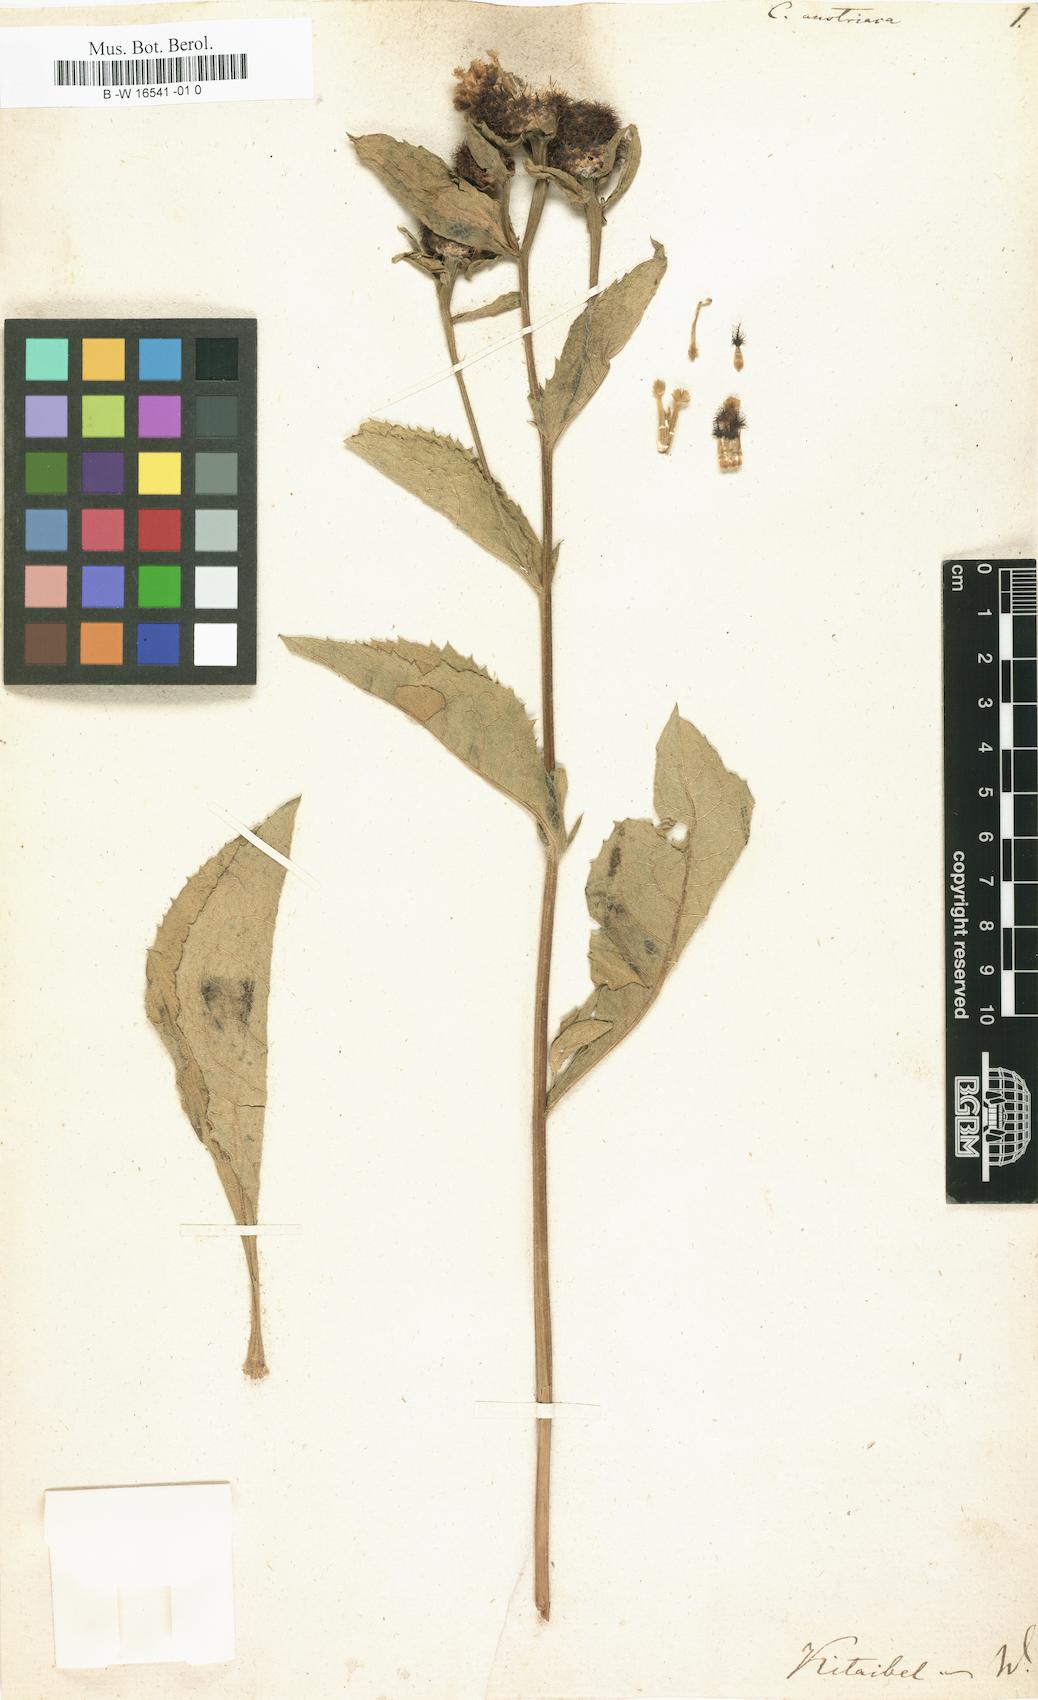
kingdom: Plantae
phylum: Tracheophyta
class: Magnoliopsida
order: Asterales
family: Asteraceae
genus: Centaurea
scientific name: Centaurea
